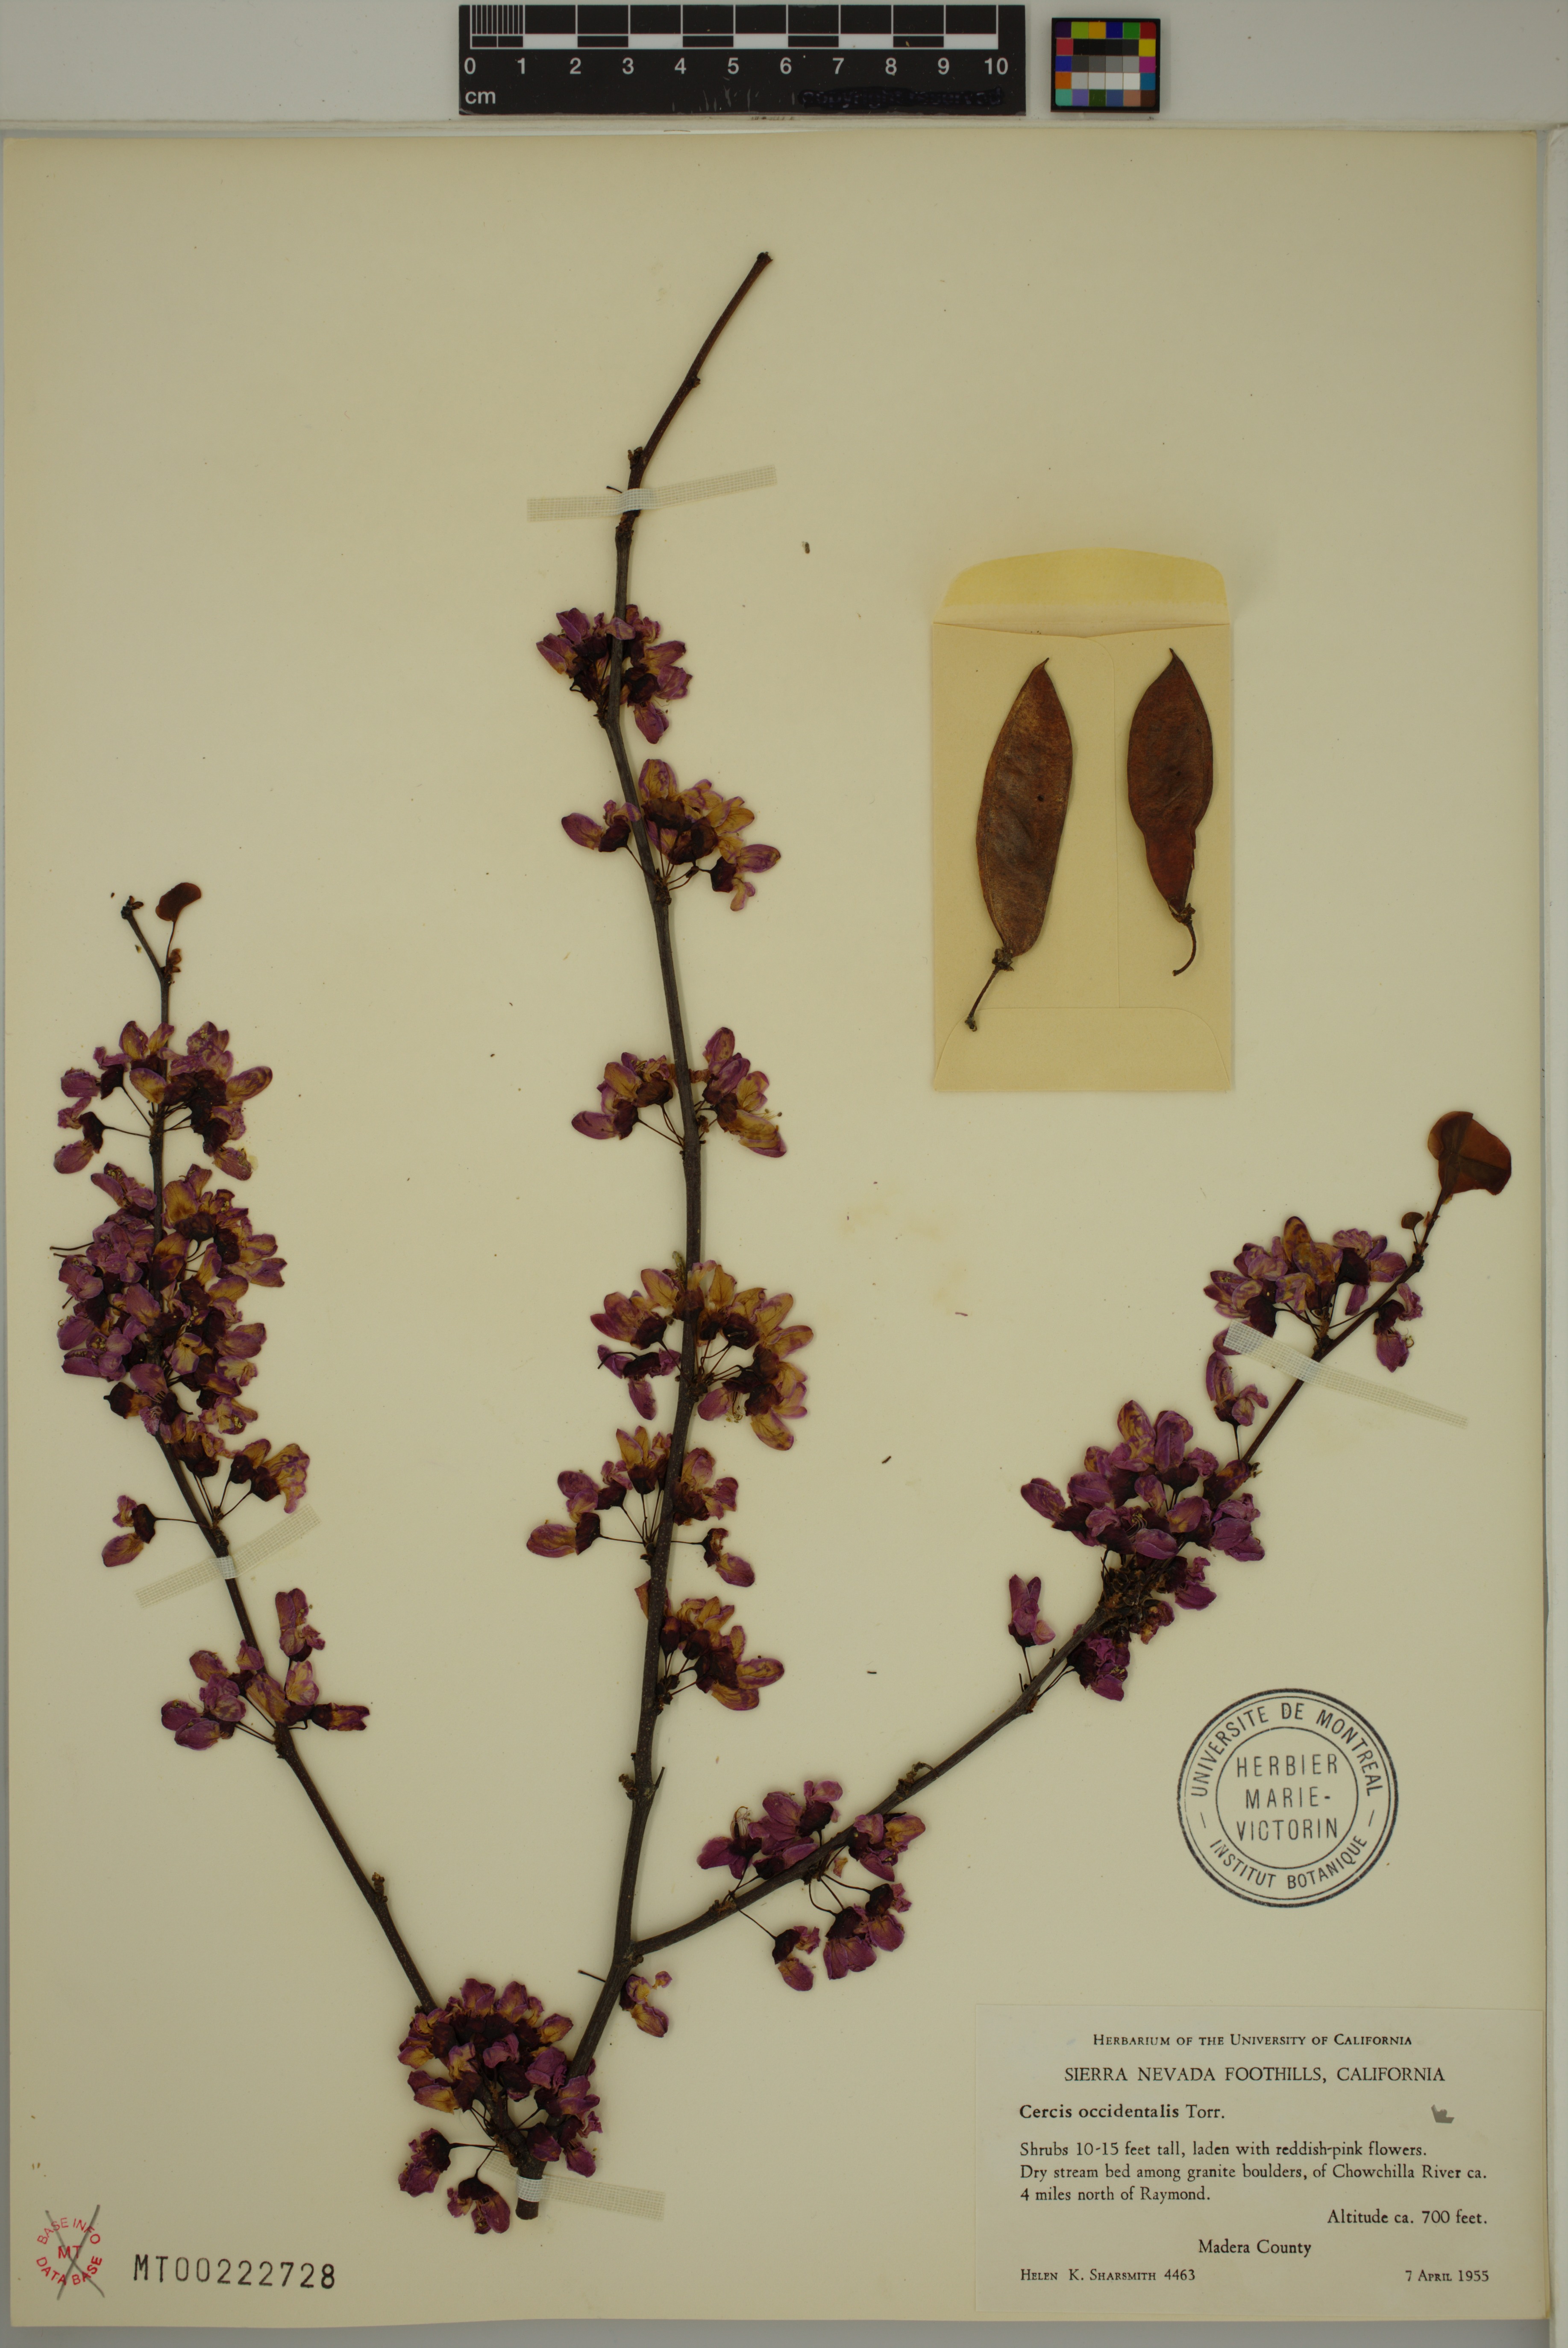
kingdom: Plantae
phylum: Tracheophyta
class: Magnoliopsida
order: Fabales
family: Fabaceae
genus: Cercis
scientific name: Cercis occidentalis
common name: California redbud
